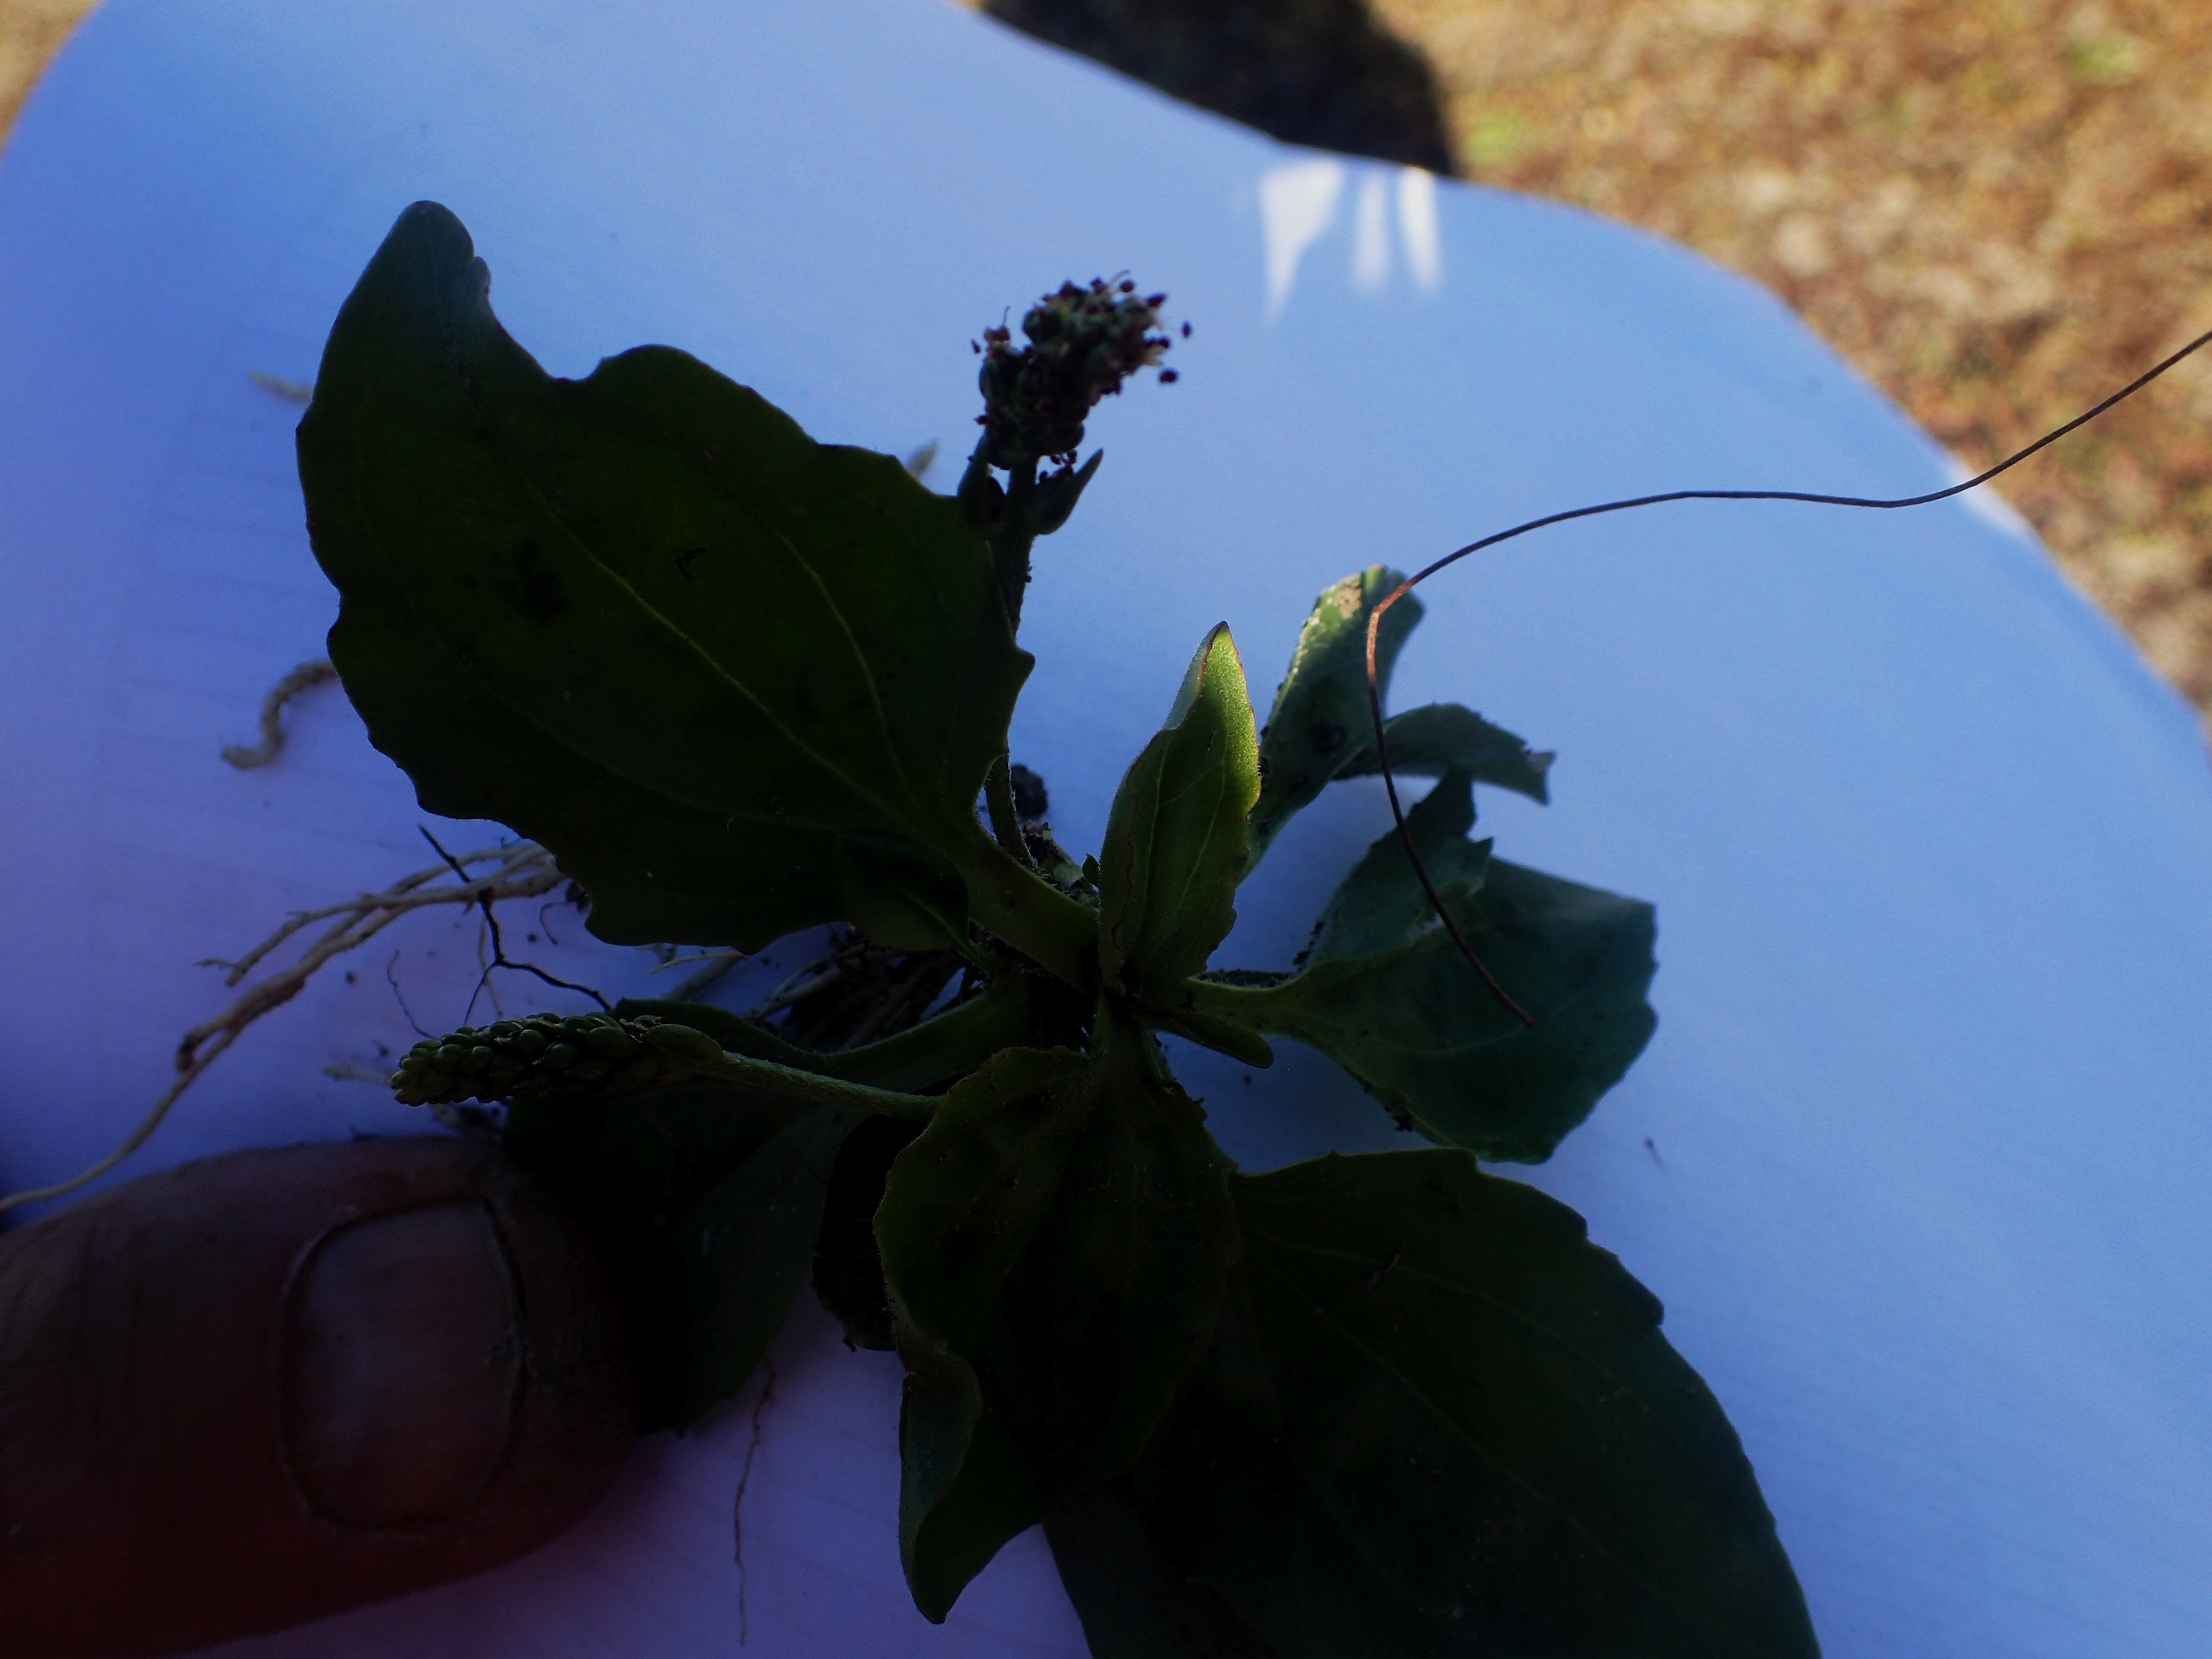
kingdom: Plantae
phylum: Tracheophyta
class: Magnoliopsida
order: Lamiales
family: Plantaginaceae
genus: Plantago
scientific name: Plantago uliginosa
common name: Ager-vejbred
